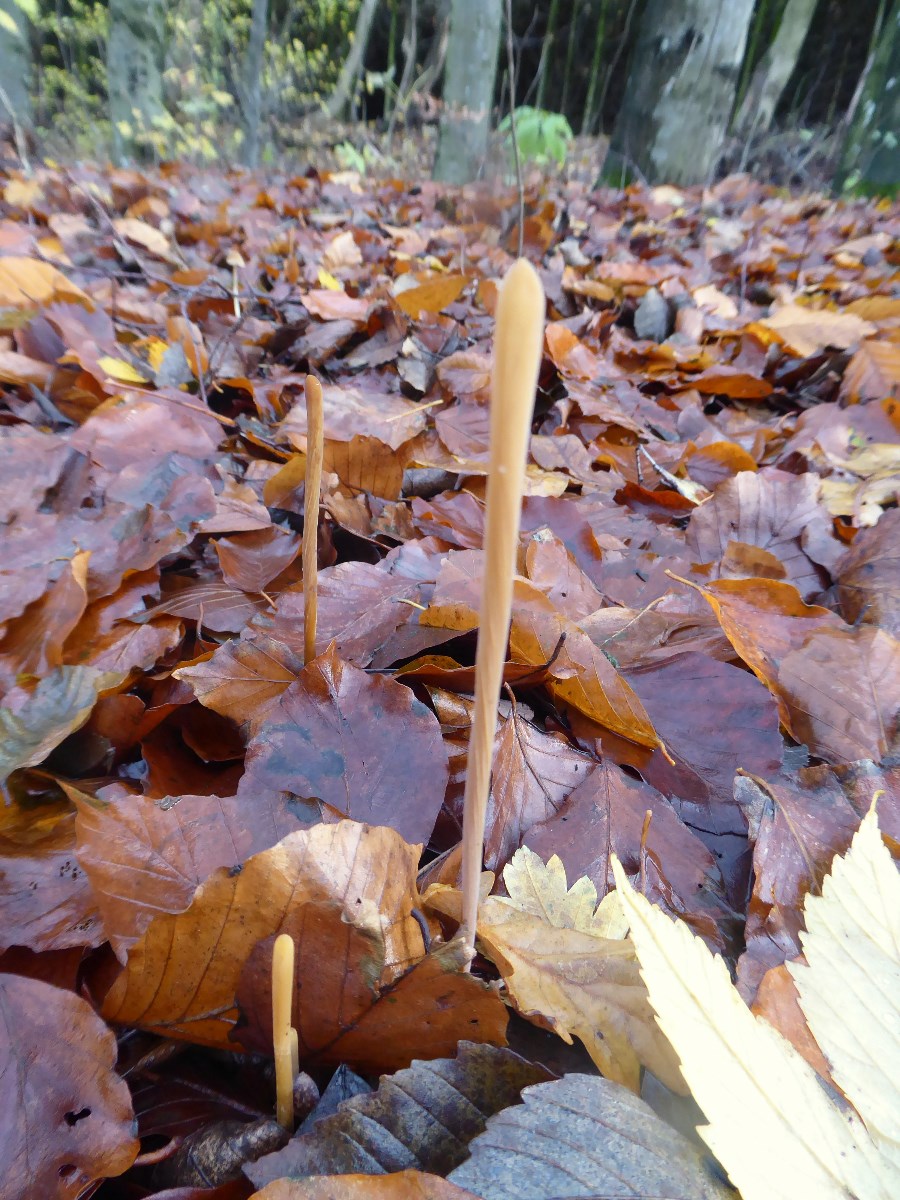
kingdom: Fungi
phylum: Basidiomycota
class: Agaricomycetes
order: Agaricales
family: Typhulaceae
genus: Typhula
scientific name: Typhula fistulosa
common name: pibet rørkølle
